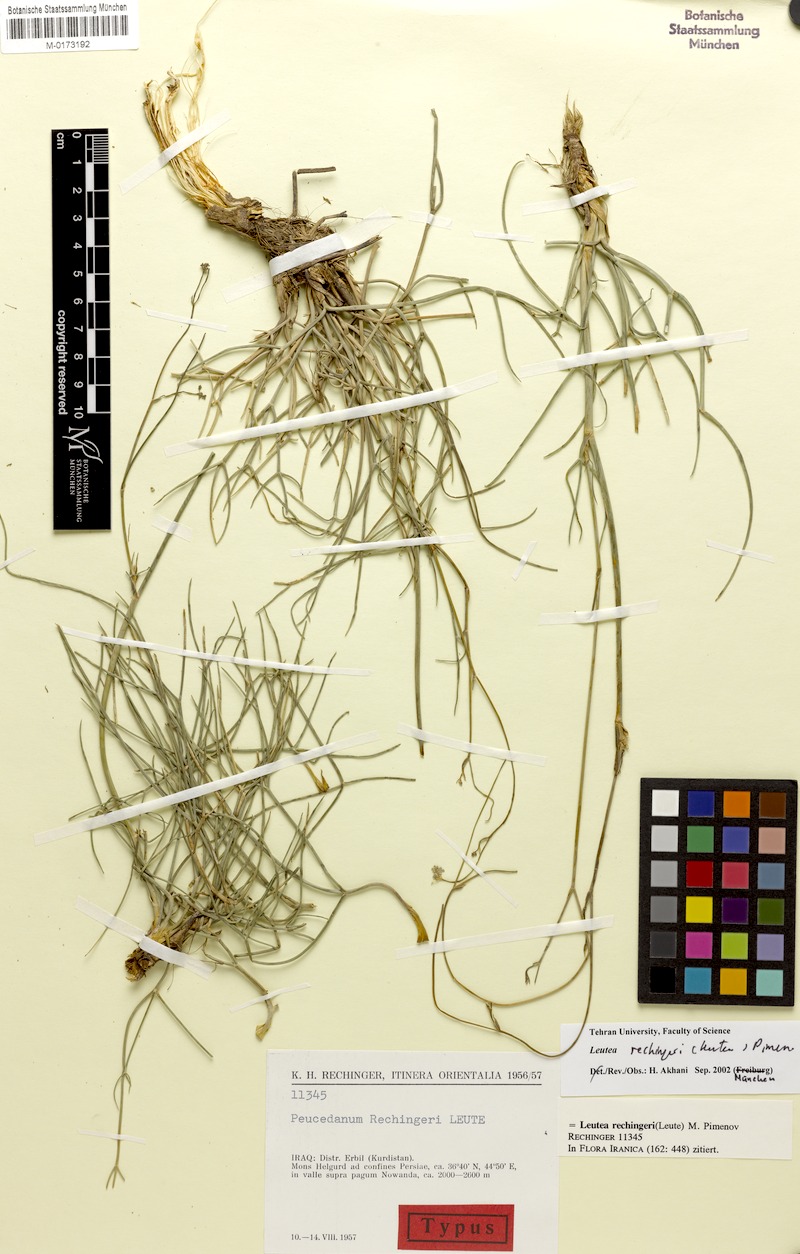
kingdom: Plantae
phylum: Tracheophyta
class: Magnoliopsida
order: Apiales
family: Apiaceae
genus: Leutea
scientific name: Leutea rechingeri
